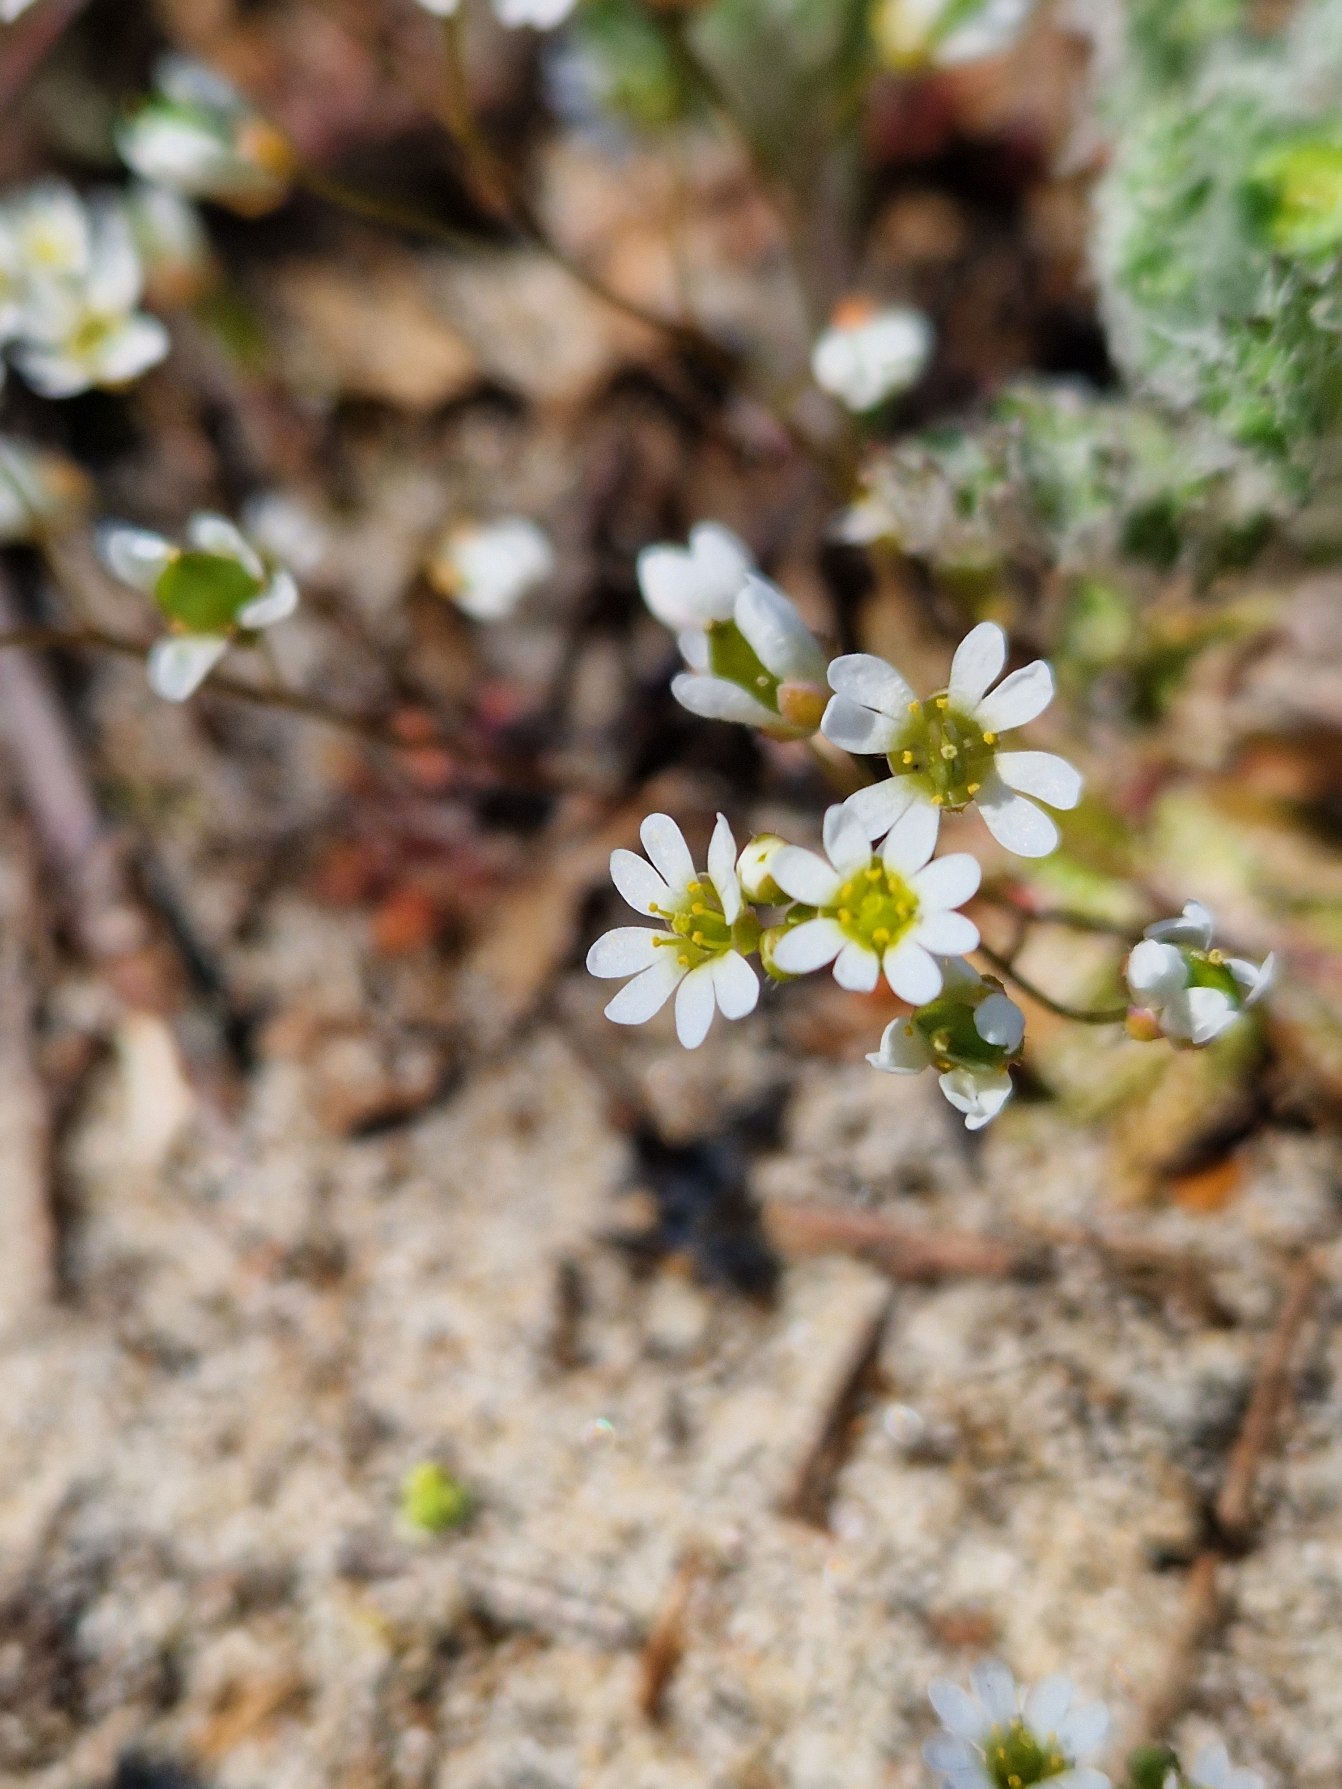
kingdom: Plantae
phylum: Tracheophyta
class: Magnoliopsida
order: Brassicales
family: Brassicaceae
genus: Draba
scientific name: Draba verna
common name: Vår-gæslingeblomst
